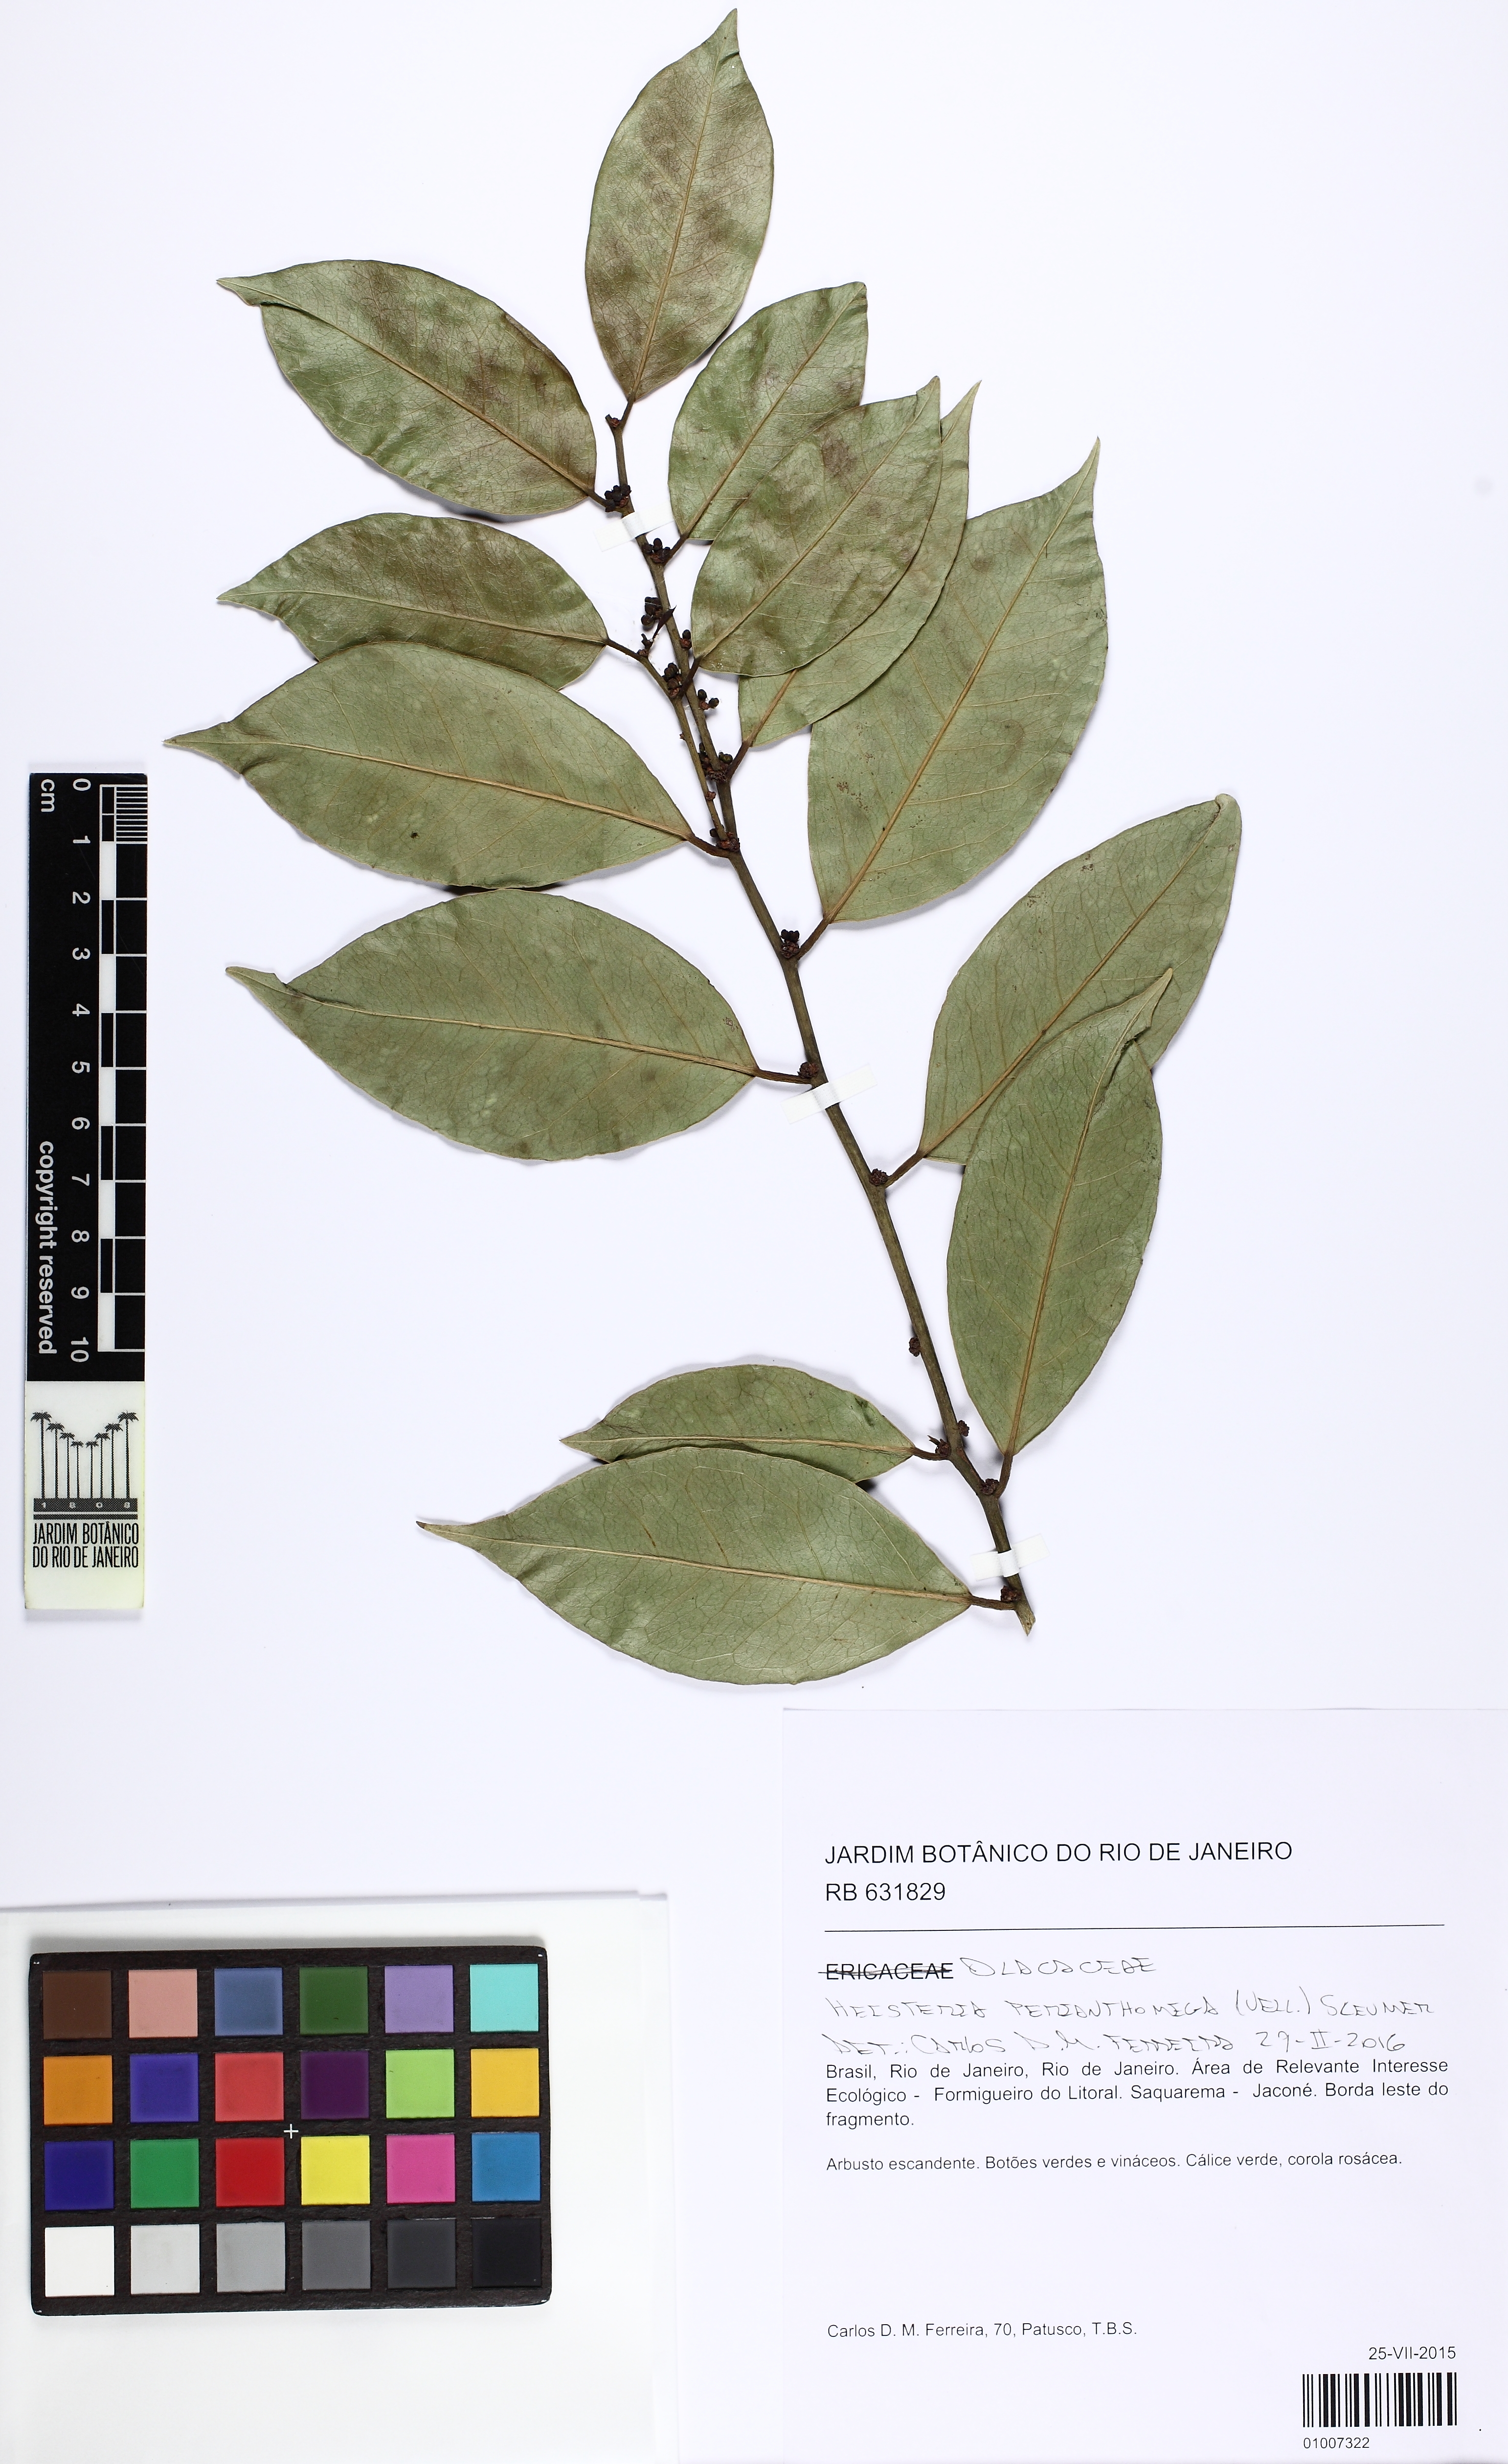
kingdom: Plantae
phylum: Tracheophyta
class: Magnoliopsida
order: Santalales
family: Erythropalaceae
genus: Heisteria
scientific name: Heisteria perianthomega
